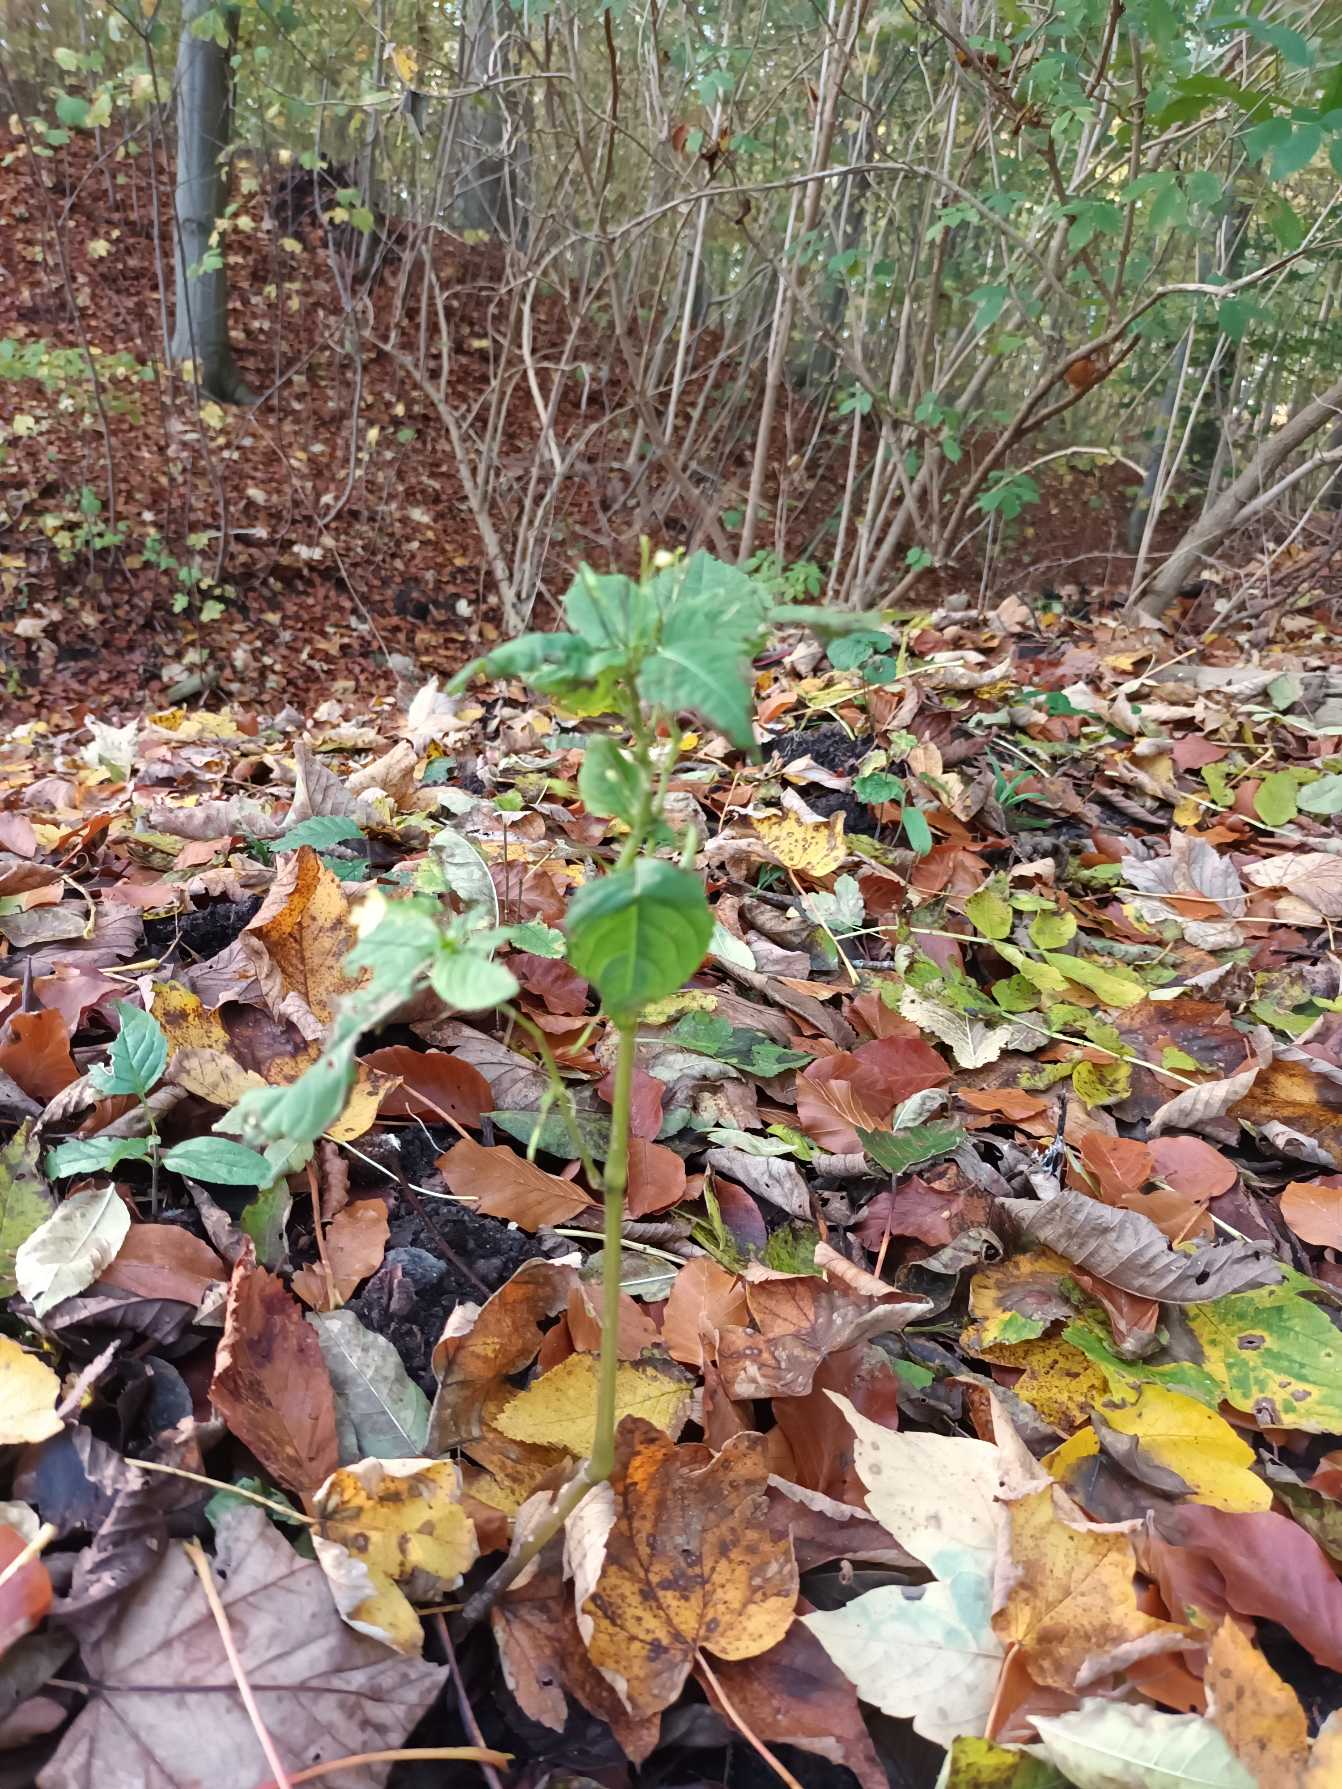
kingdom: Plantae
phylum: Tracheophyta
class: Magnoliopsida
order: Ericales
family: Balsaminaceae
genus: Impatiens
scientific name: Impatiens parviflora
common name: Småblomstret balsamin
